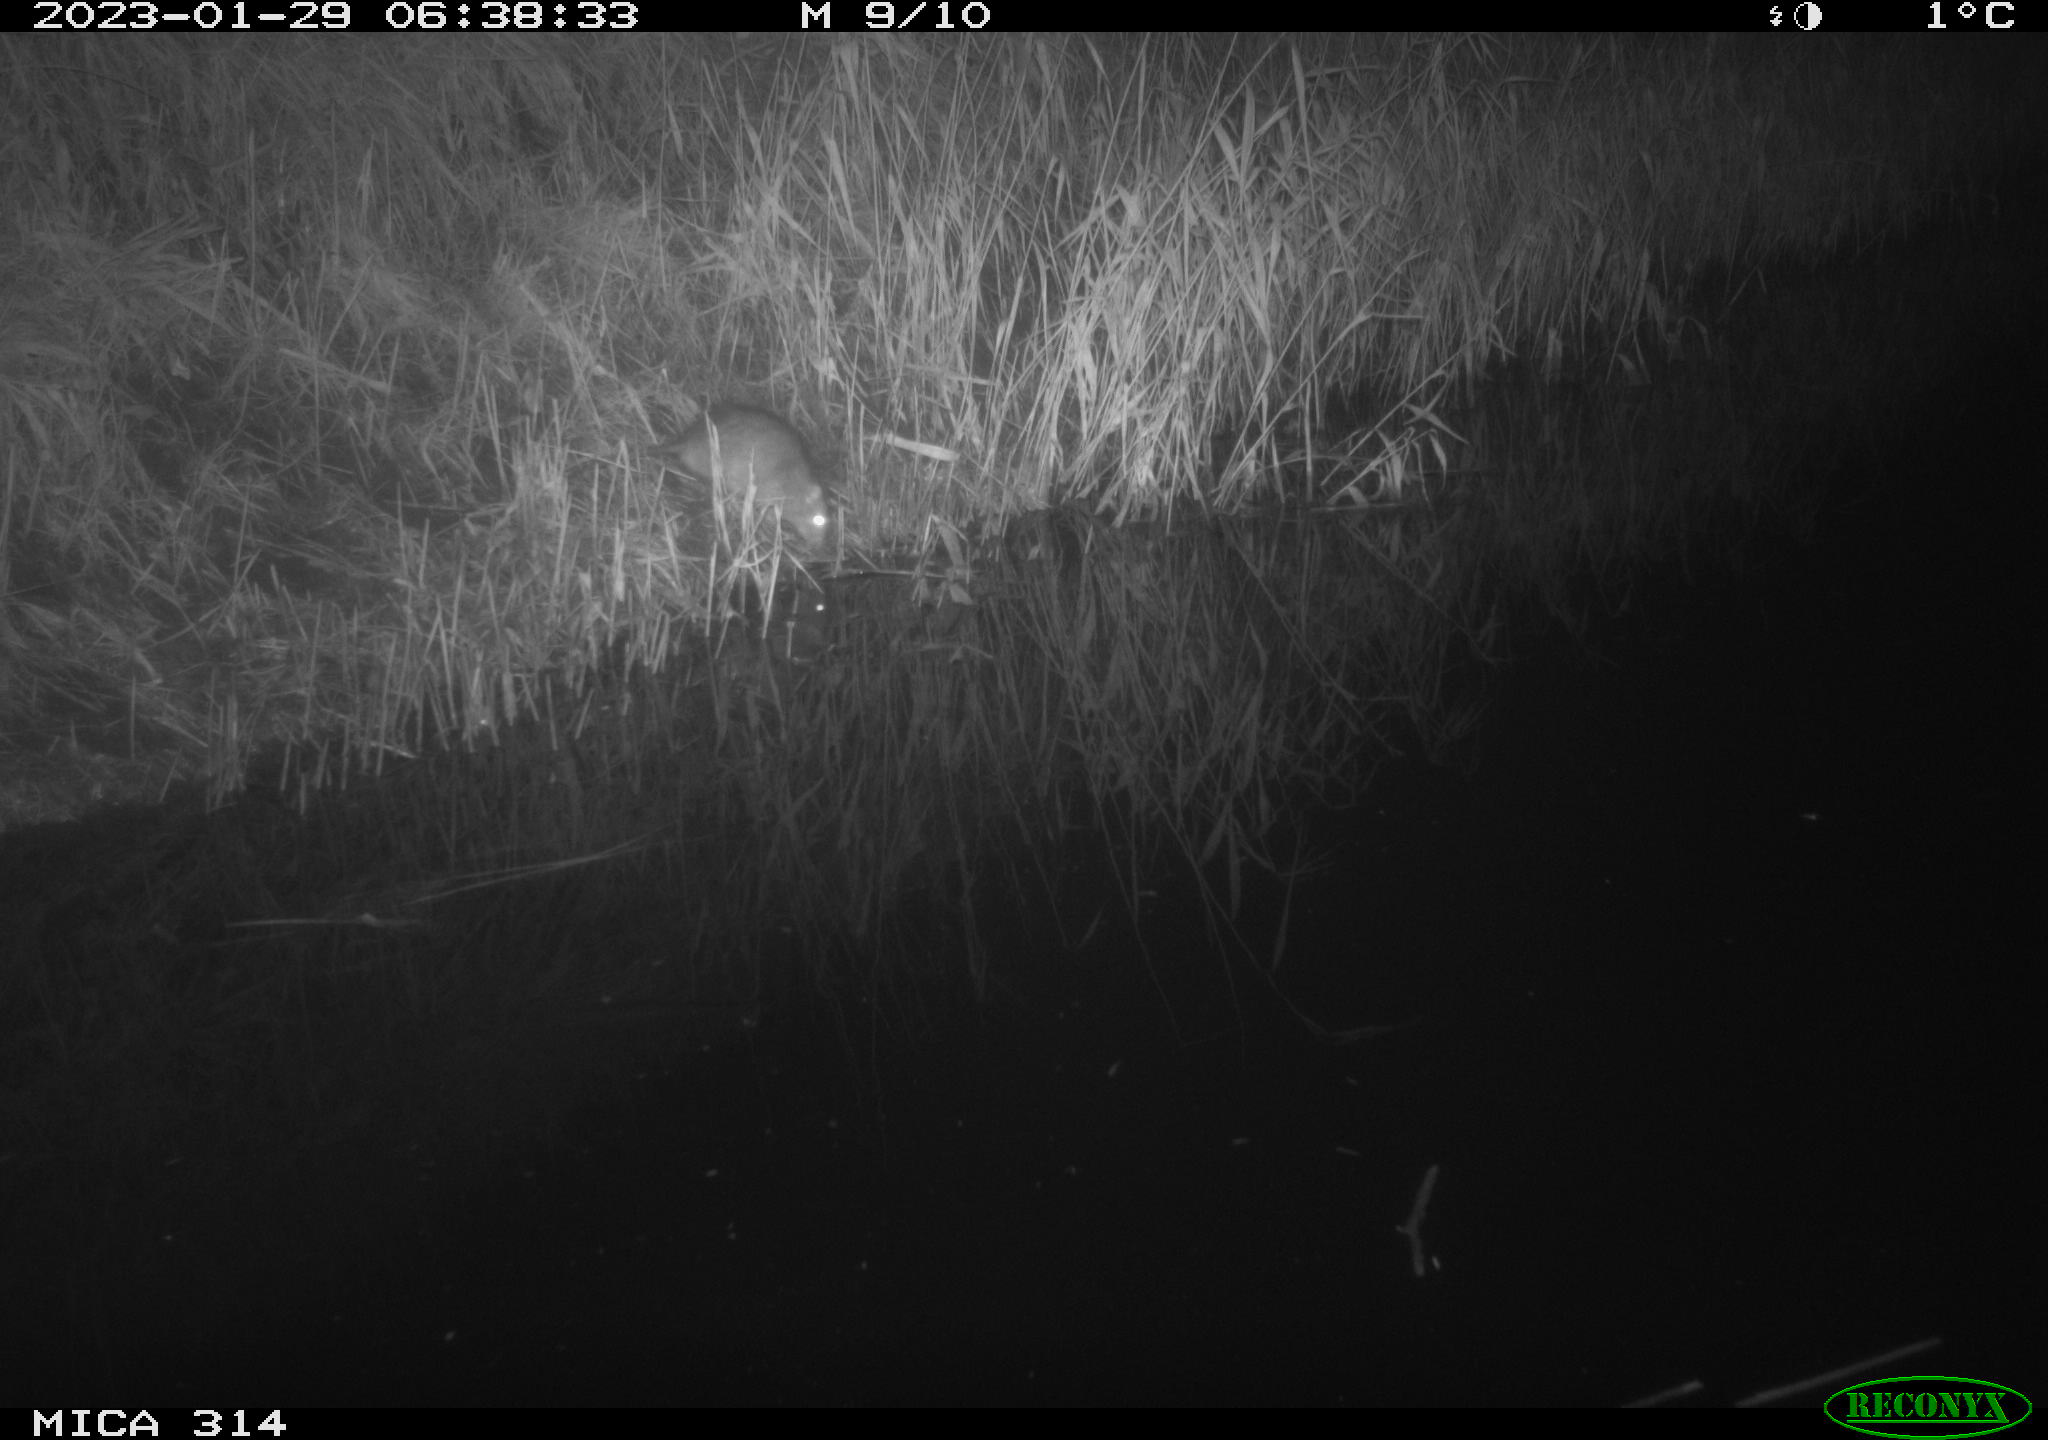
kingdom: Animalia
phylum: Chordata
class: Mammalia
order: Rodentia
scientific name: Rodentia
